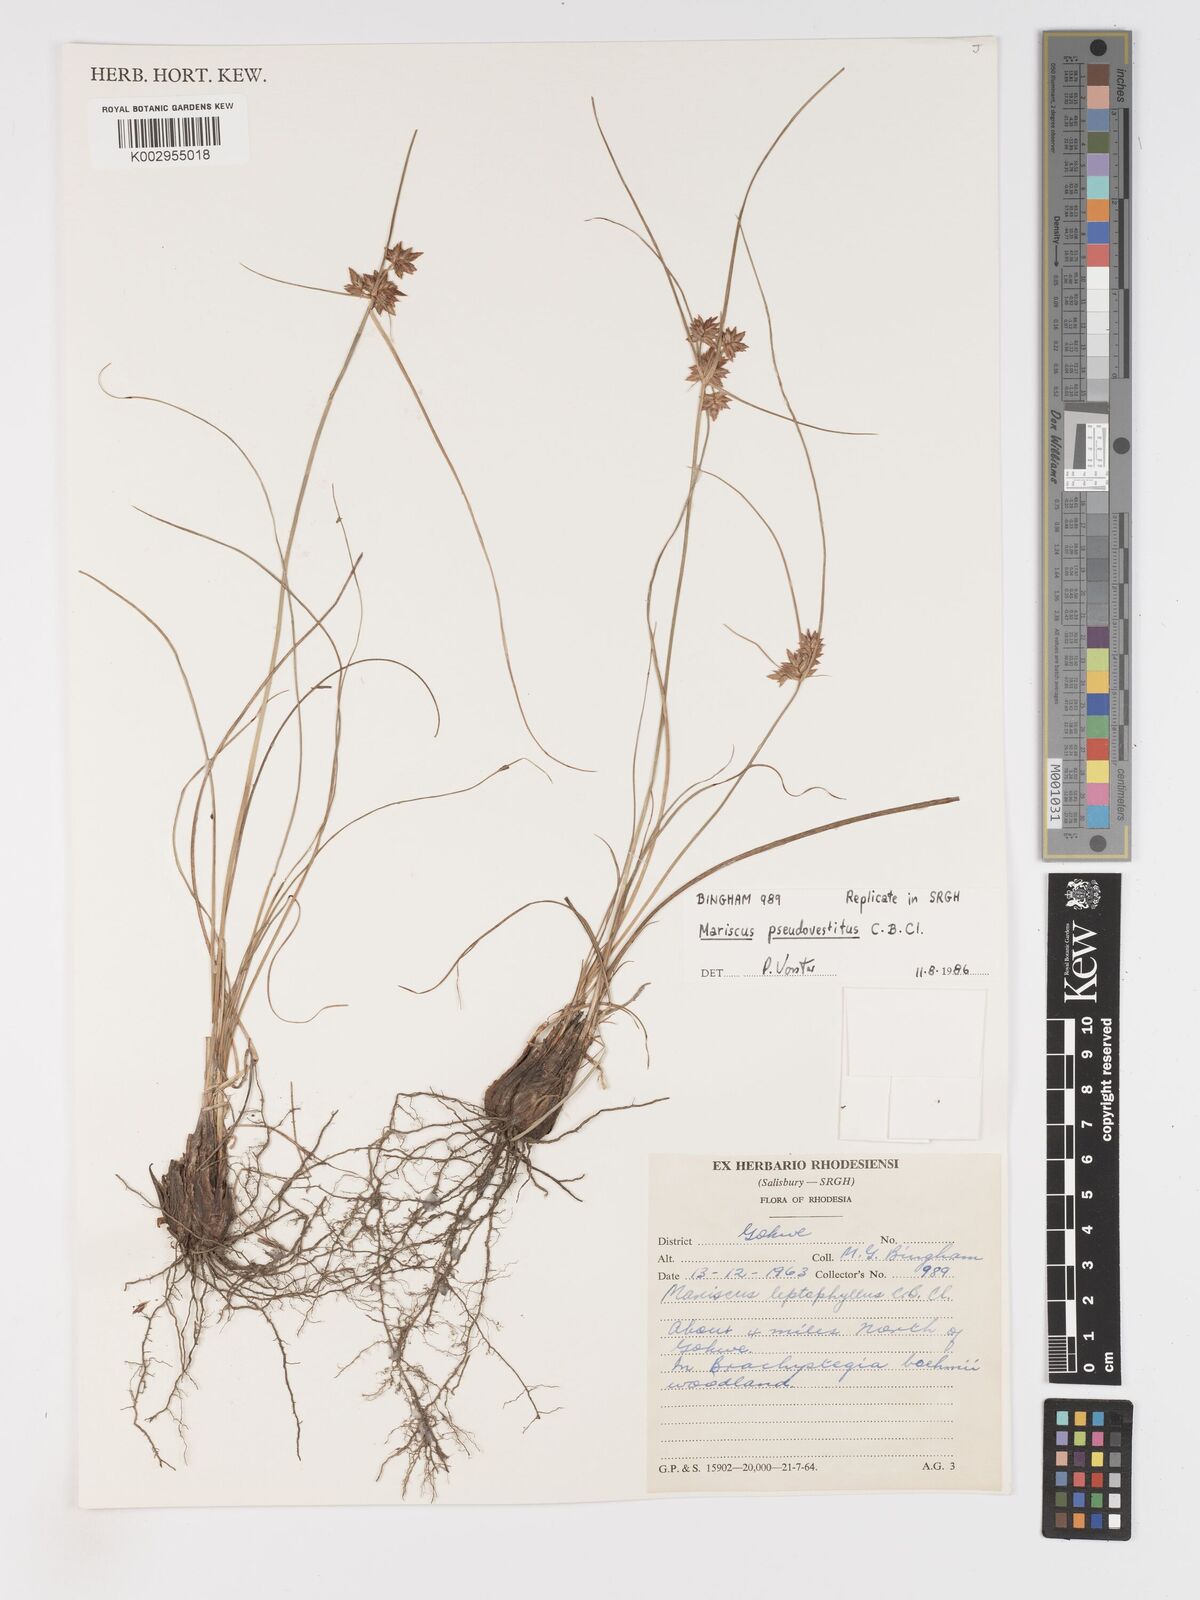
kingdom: Plantae
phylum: Tracheophyta
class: Liliopsida
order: Poales
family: Cyperaceae
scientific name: Cyperaceae
